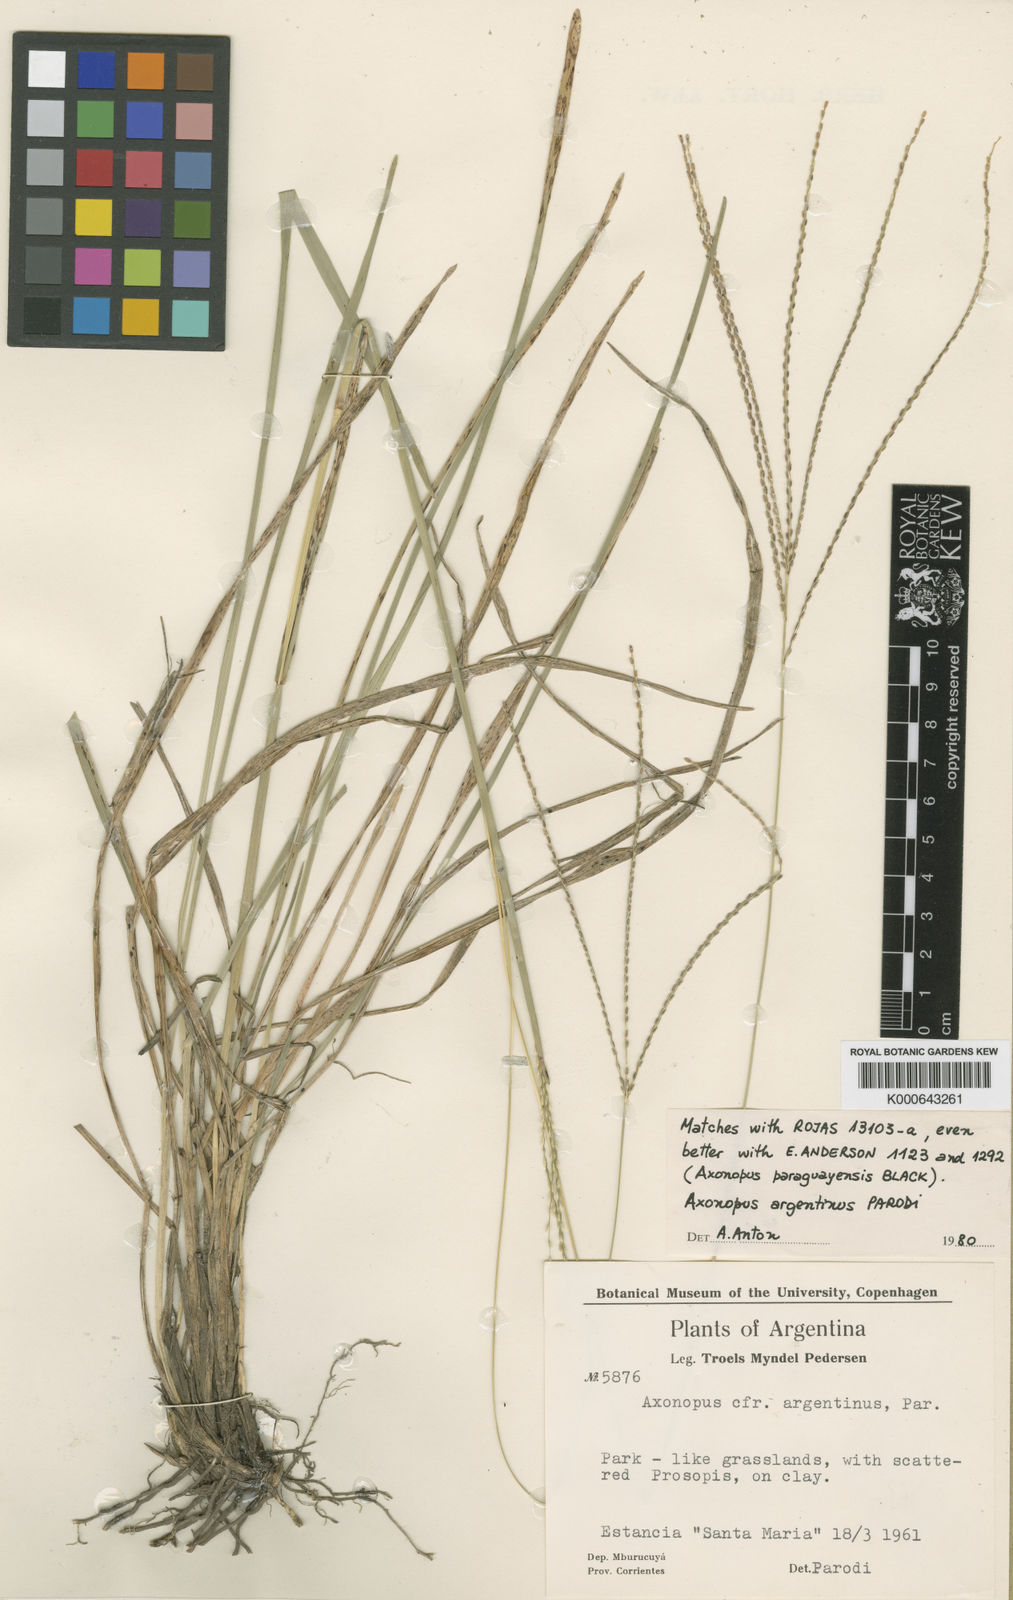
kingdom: Plantae
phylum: Tracheophyta
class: Liliopsida
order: Poales
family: Poaceae
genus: Axonopus
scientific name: Axonopus argentinus
